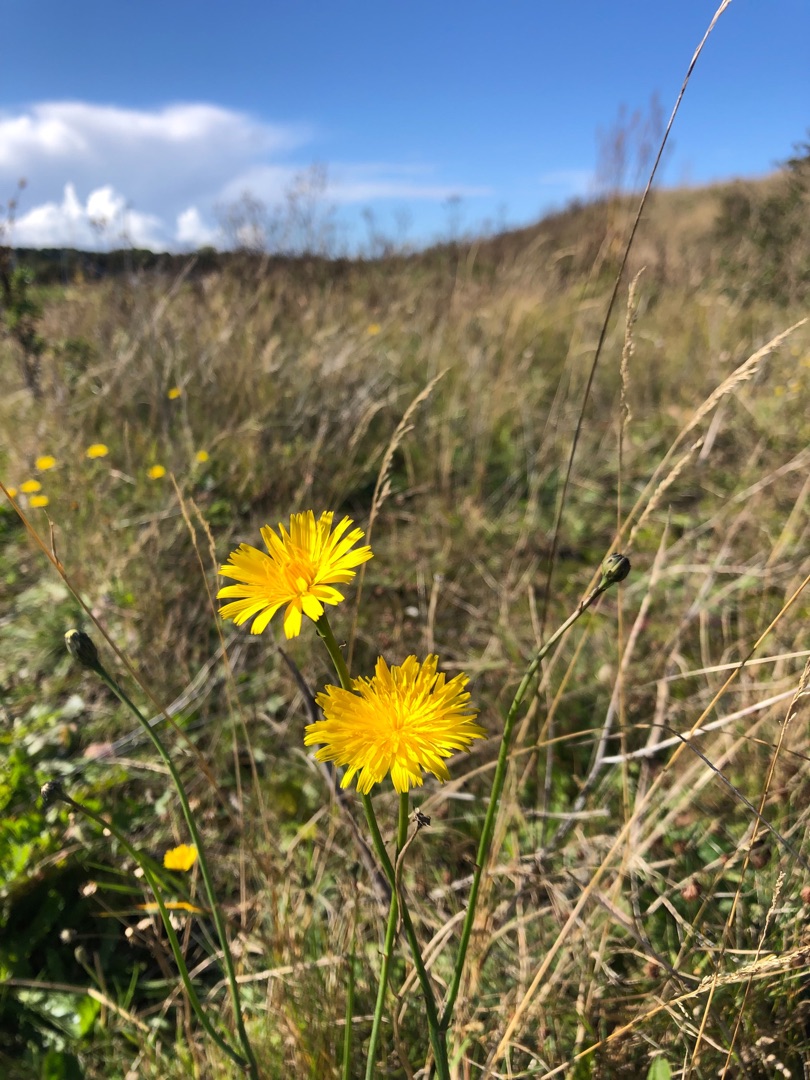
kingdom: Plantae
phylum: Tracheophyta
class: Magnoliopsida
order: Asterales
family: Asteraceae
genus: Hypochaeris
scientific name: Hypochaeris radicata
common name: Almindelig kongepen
